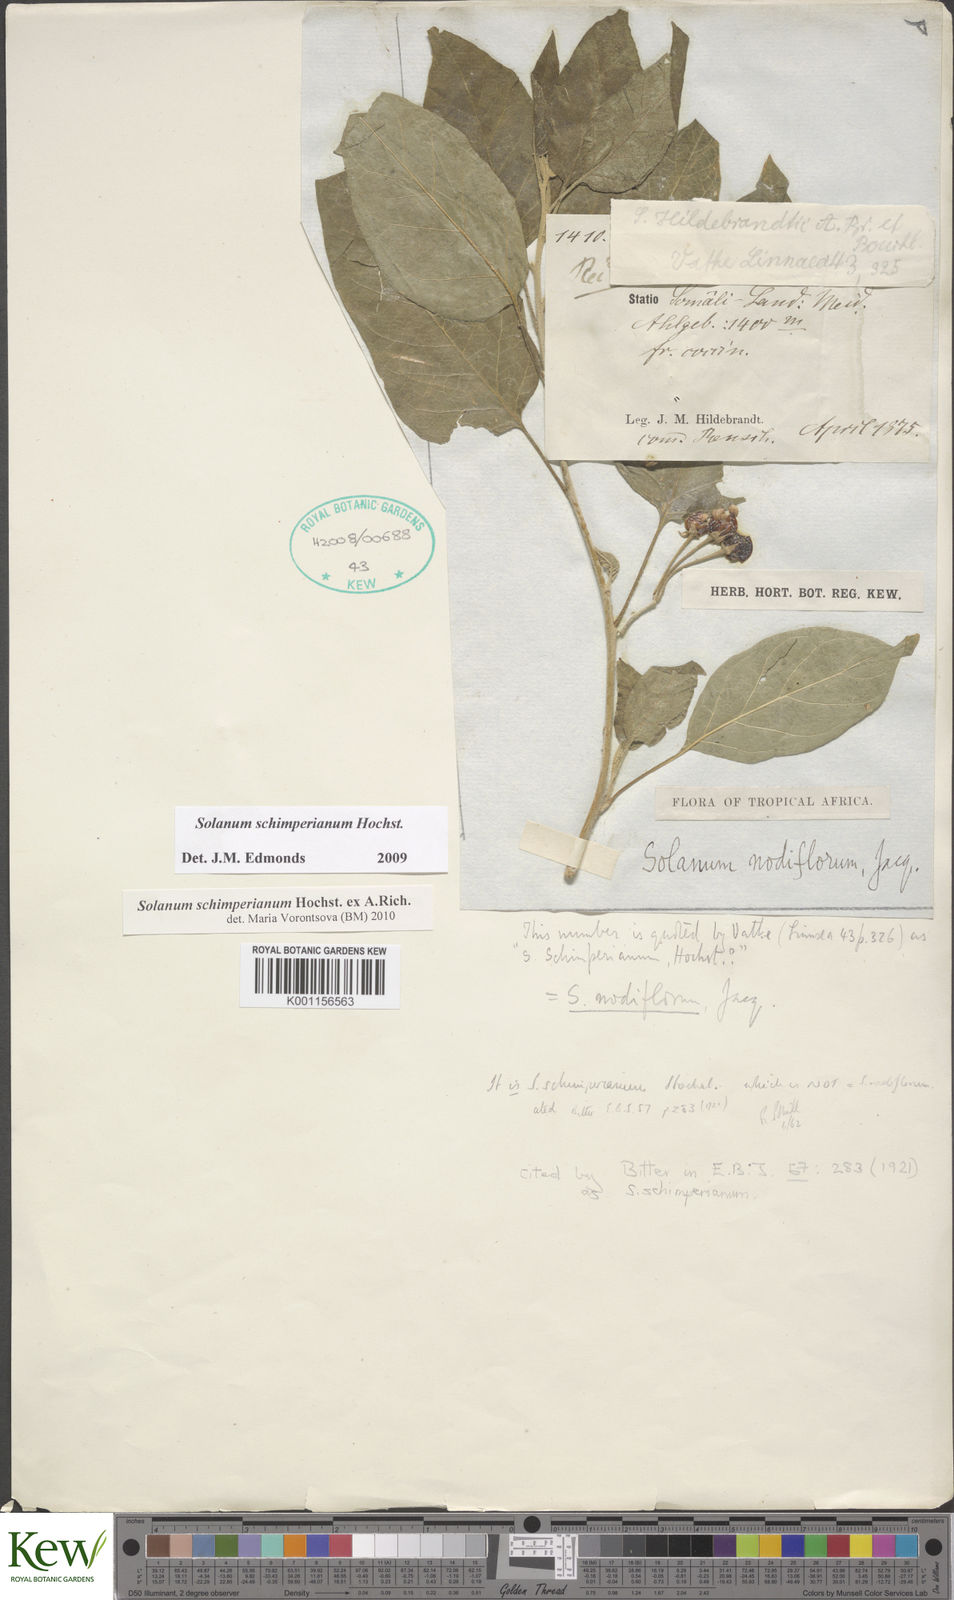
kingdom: Plantae
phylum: Tracheophyta
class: Magnoliopsida
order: Solanales
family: Solanaceae
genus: Solanum
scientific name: Solanum
